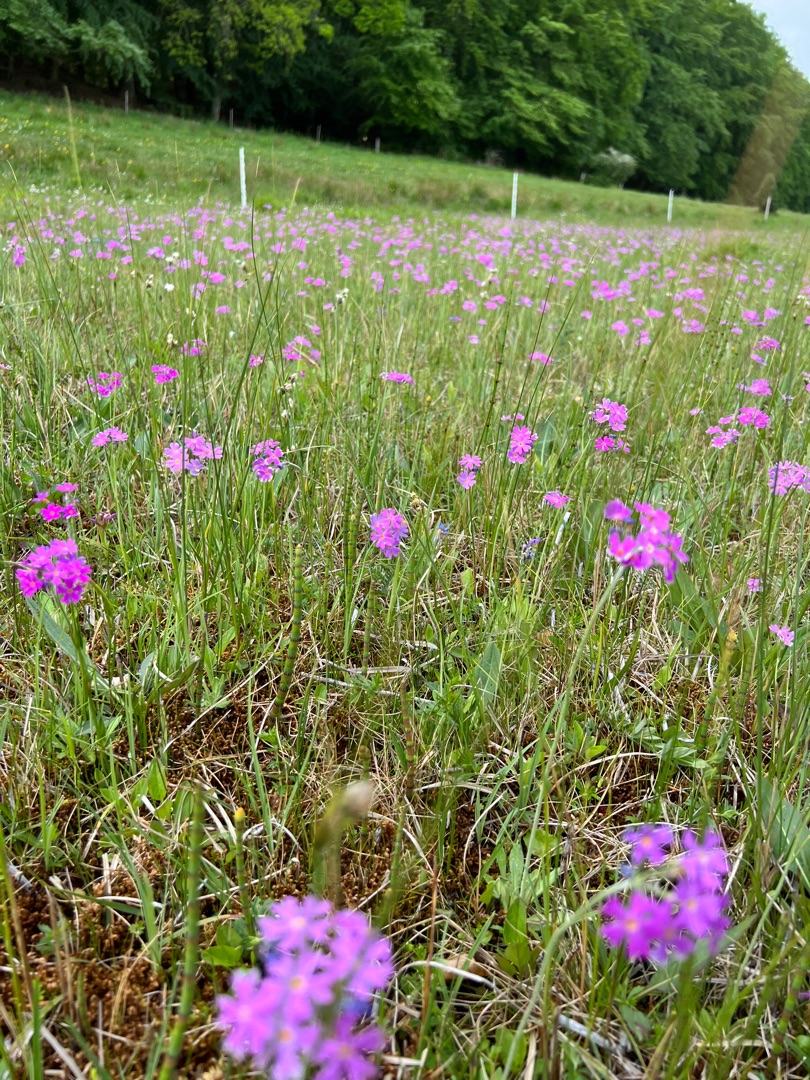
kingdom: Plantae
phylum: Tracheophyta
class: Magnoliopsida
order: Ericales
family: Primulaceae
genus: Primula
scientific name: Primula farinosa
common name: Melet kodriver
